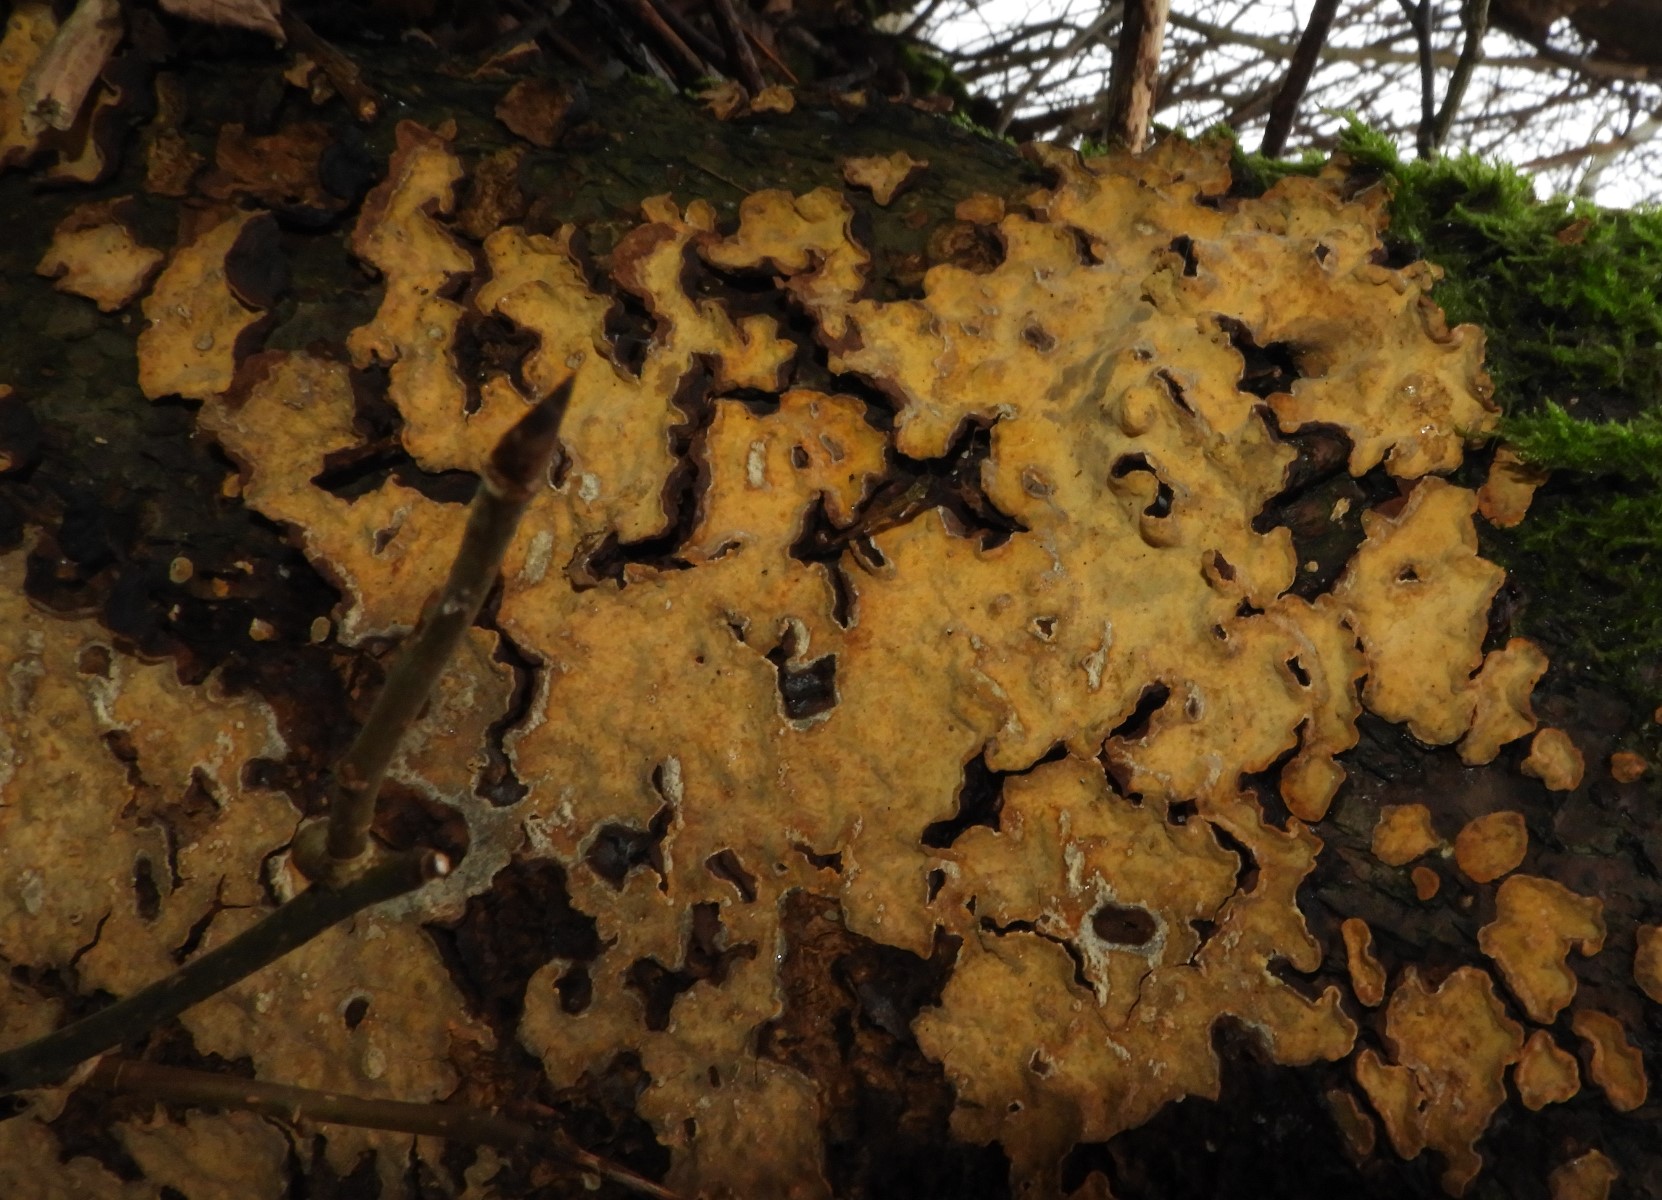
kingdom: Fungi
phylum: Basidiomycota
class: Agaricomycetes
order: Russulales
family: Stereaceae
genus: Stereum
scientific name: Stereum rugosum
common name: rynket lædersvamp
